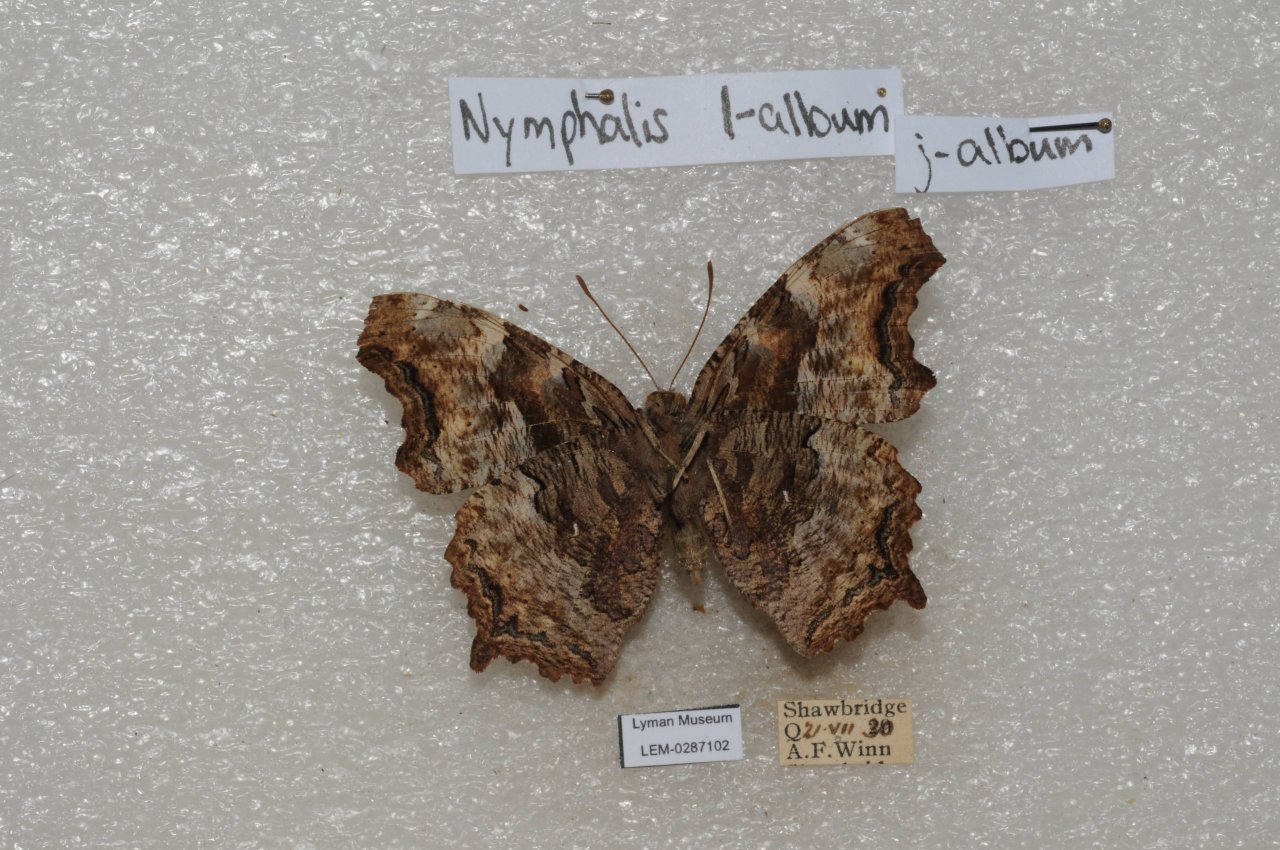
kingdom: Animalia
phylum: Arthropoda
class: Insecta
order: Lepidoptera
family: Nymphalidae
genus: Polygonia
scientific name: Polygonia vaualbum
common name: Compton Tortoiseshell
